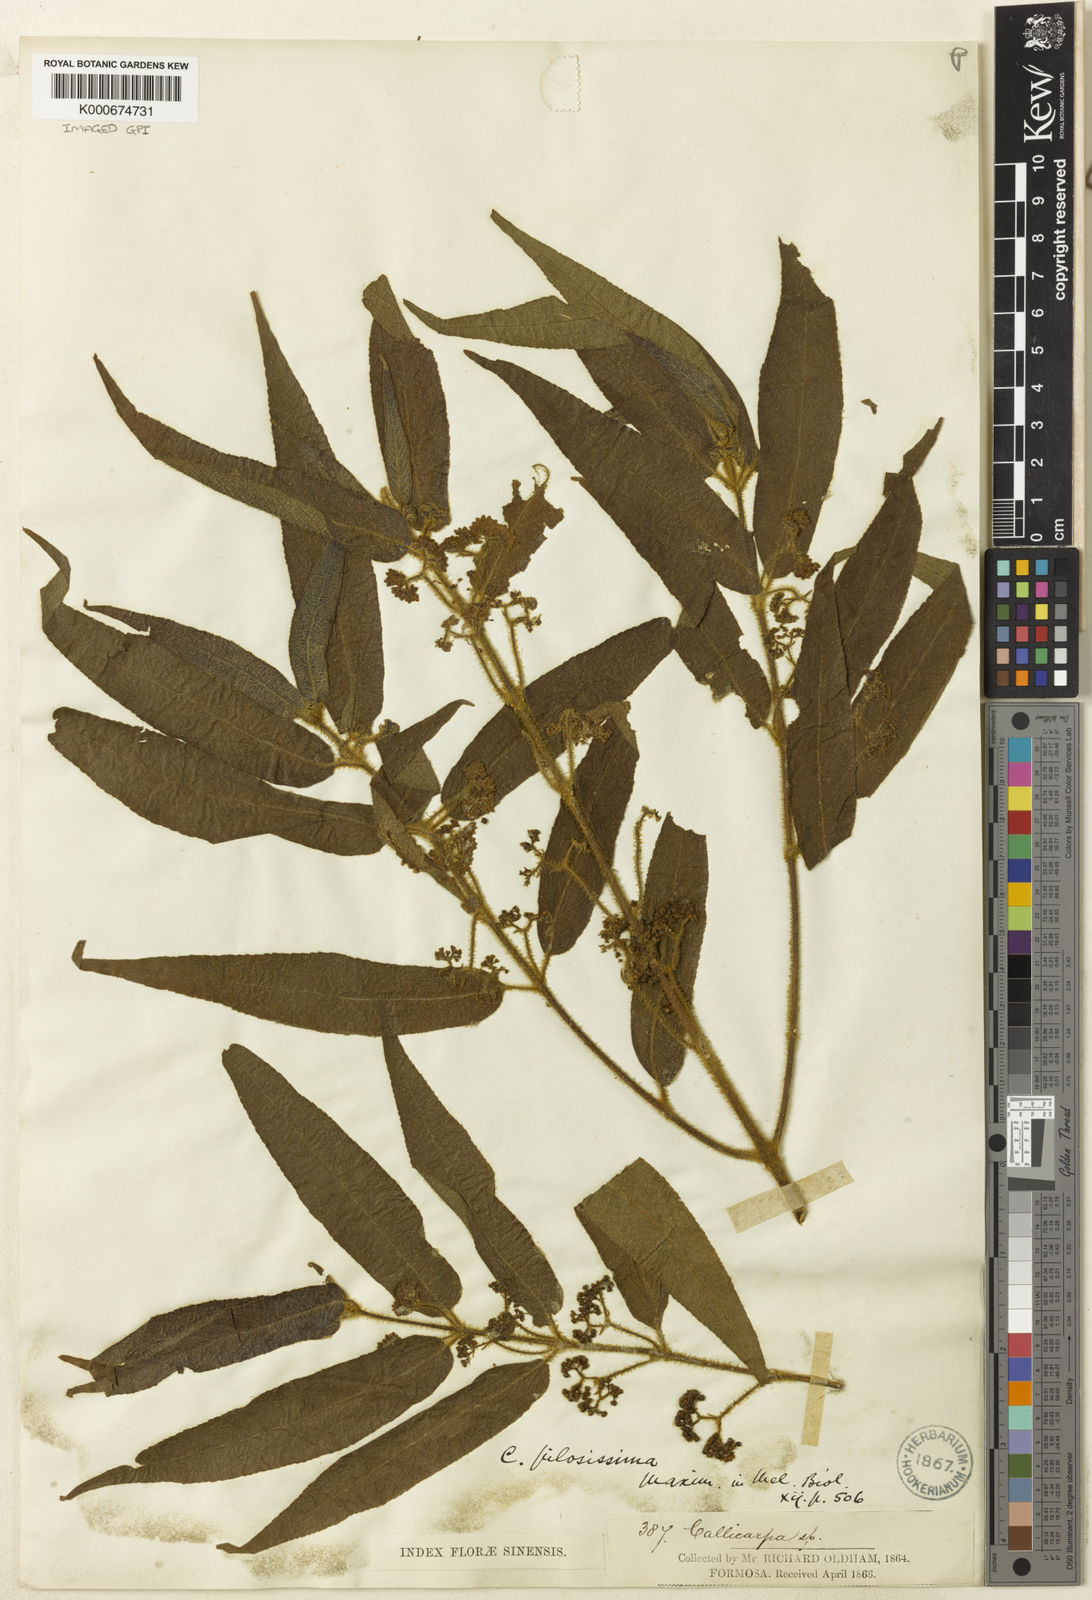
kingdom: Plantae
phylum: Tracheophyta
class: Magnoliopsida
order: Lamiales
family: Lamiaceae
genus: Callicarpa
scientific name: Callicarpa pilosissima
